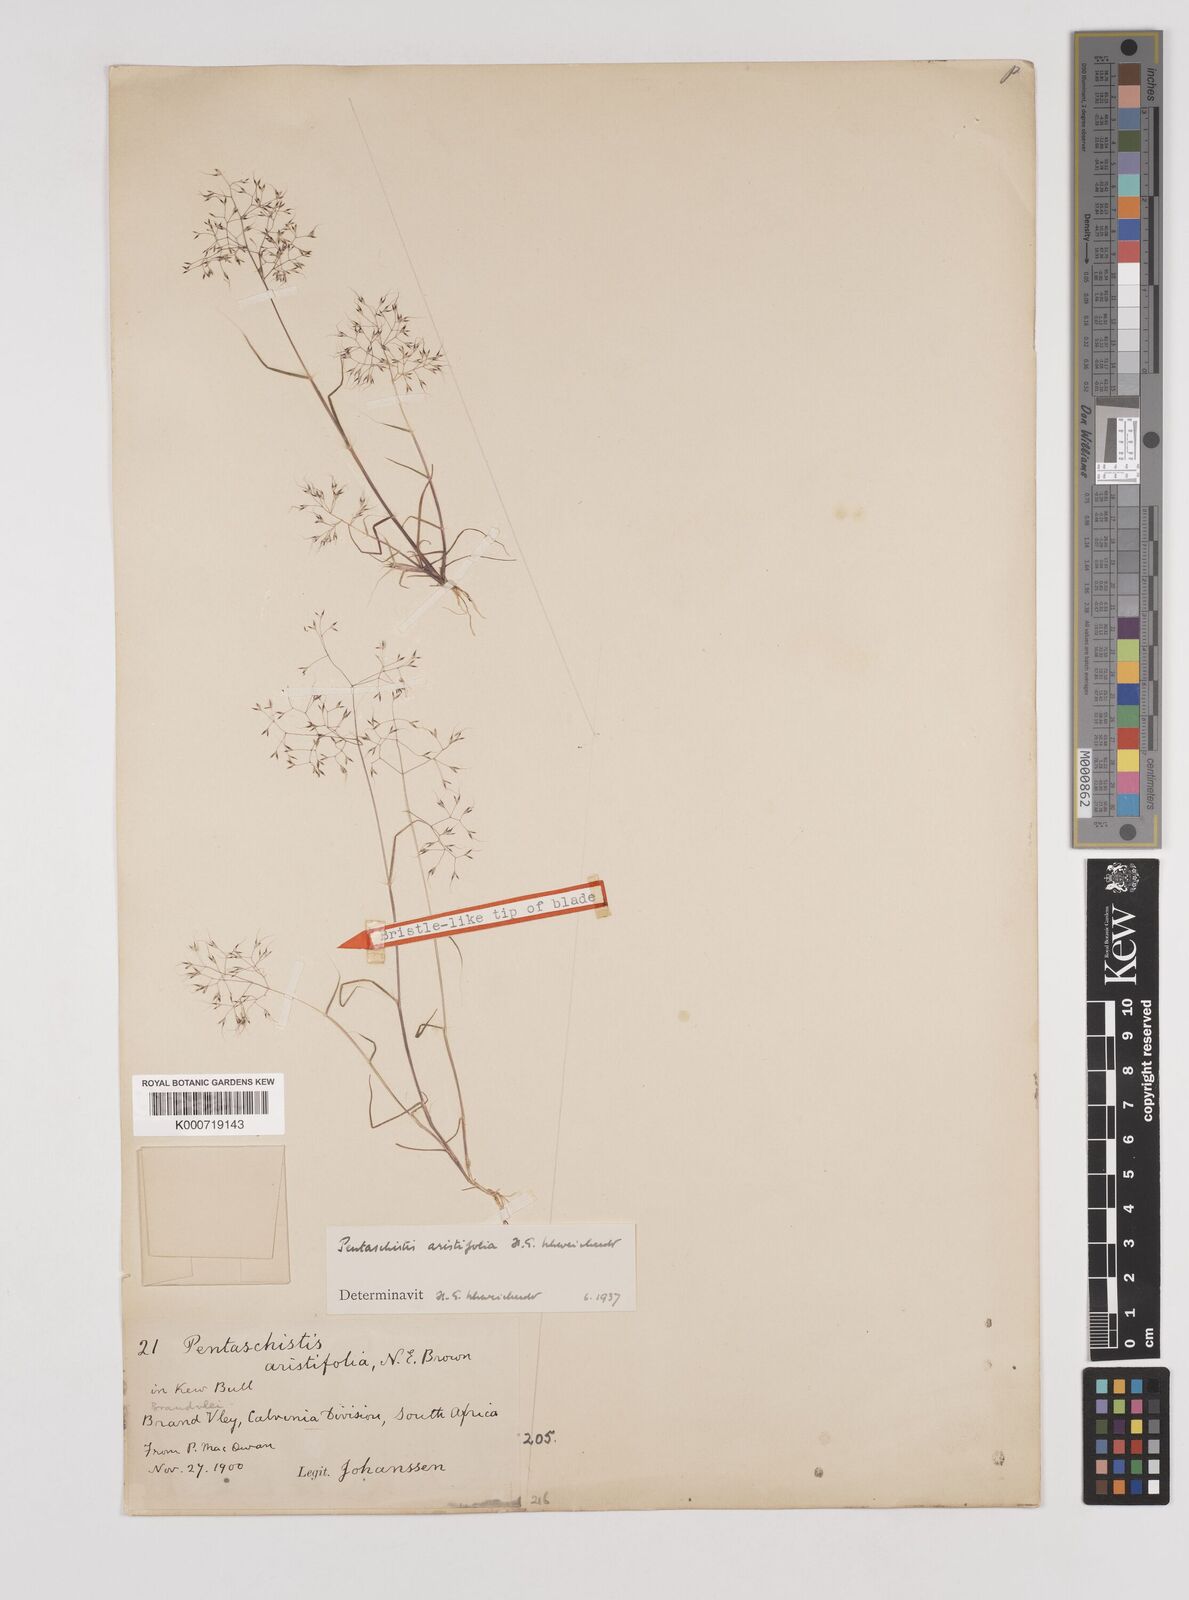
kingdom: Plantae
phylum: Tracheophyta
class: Liliopsida
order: Poales
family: Poaceae
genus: Pentameris
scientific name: Pentameris aristifolia
